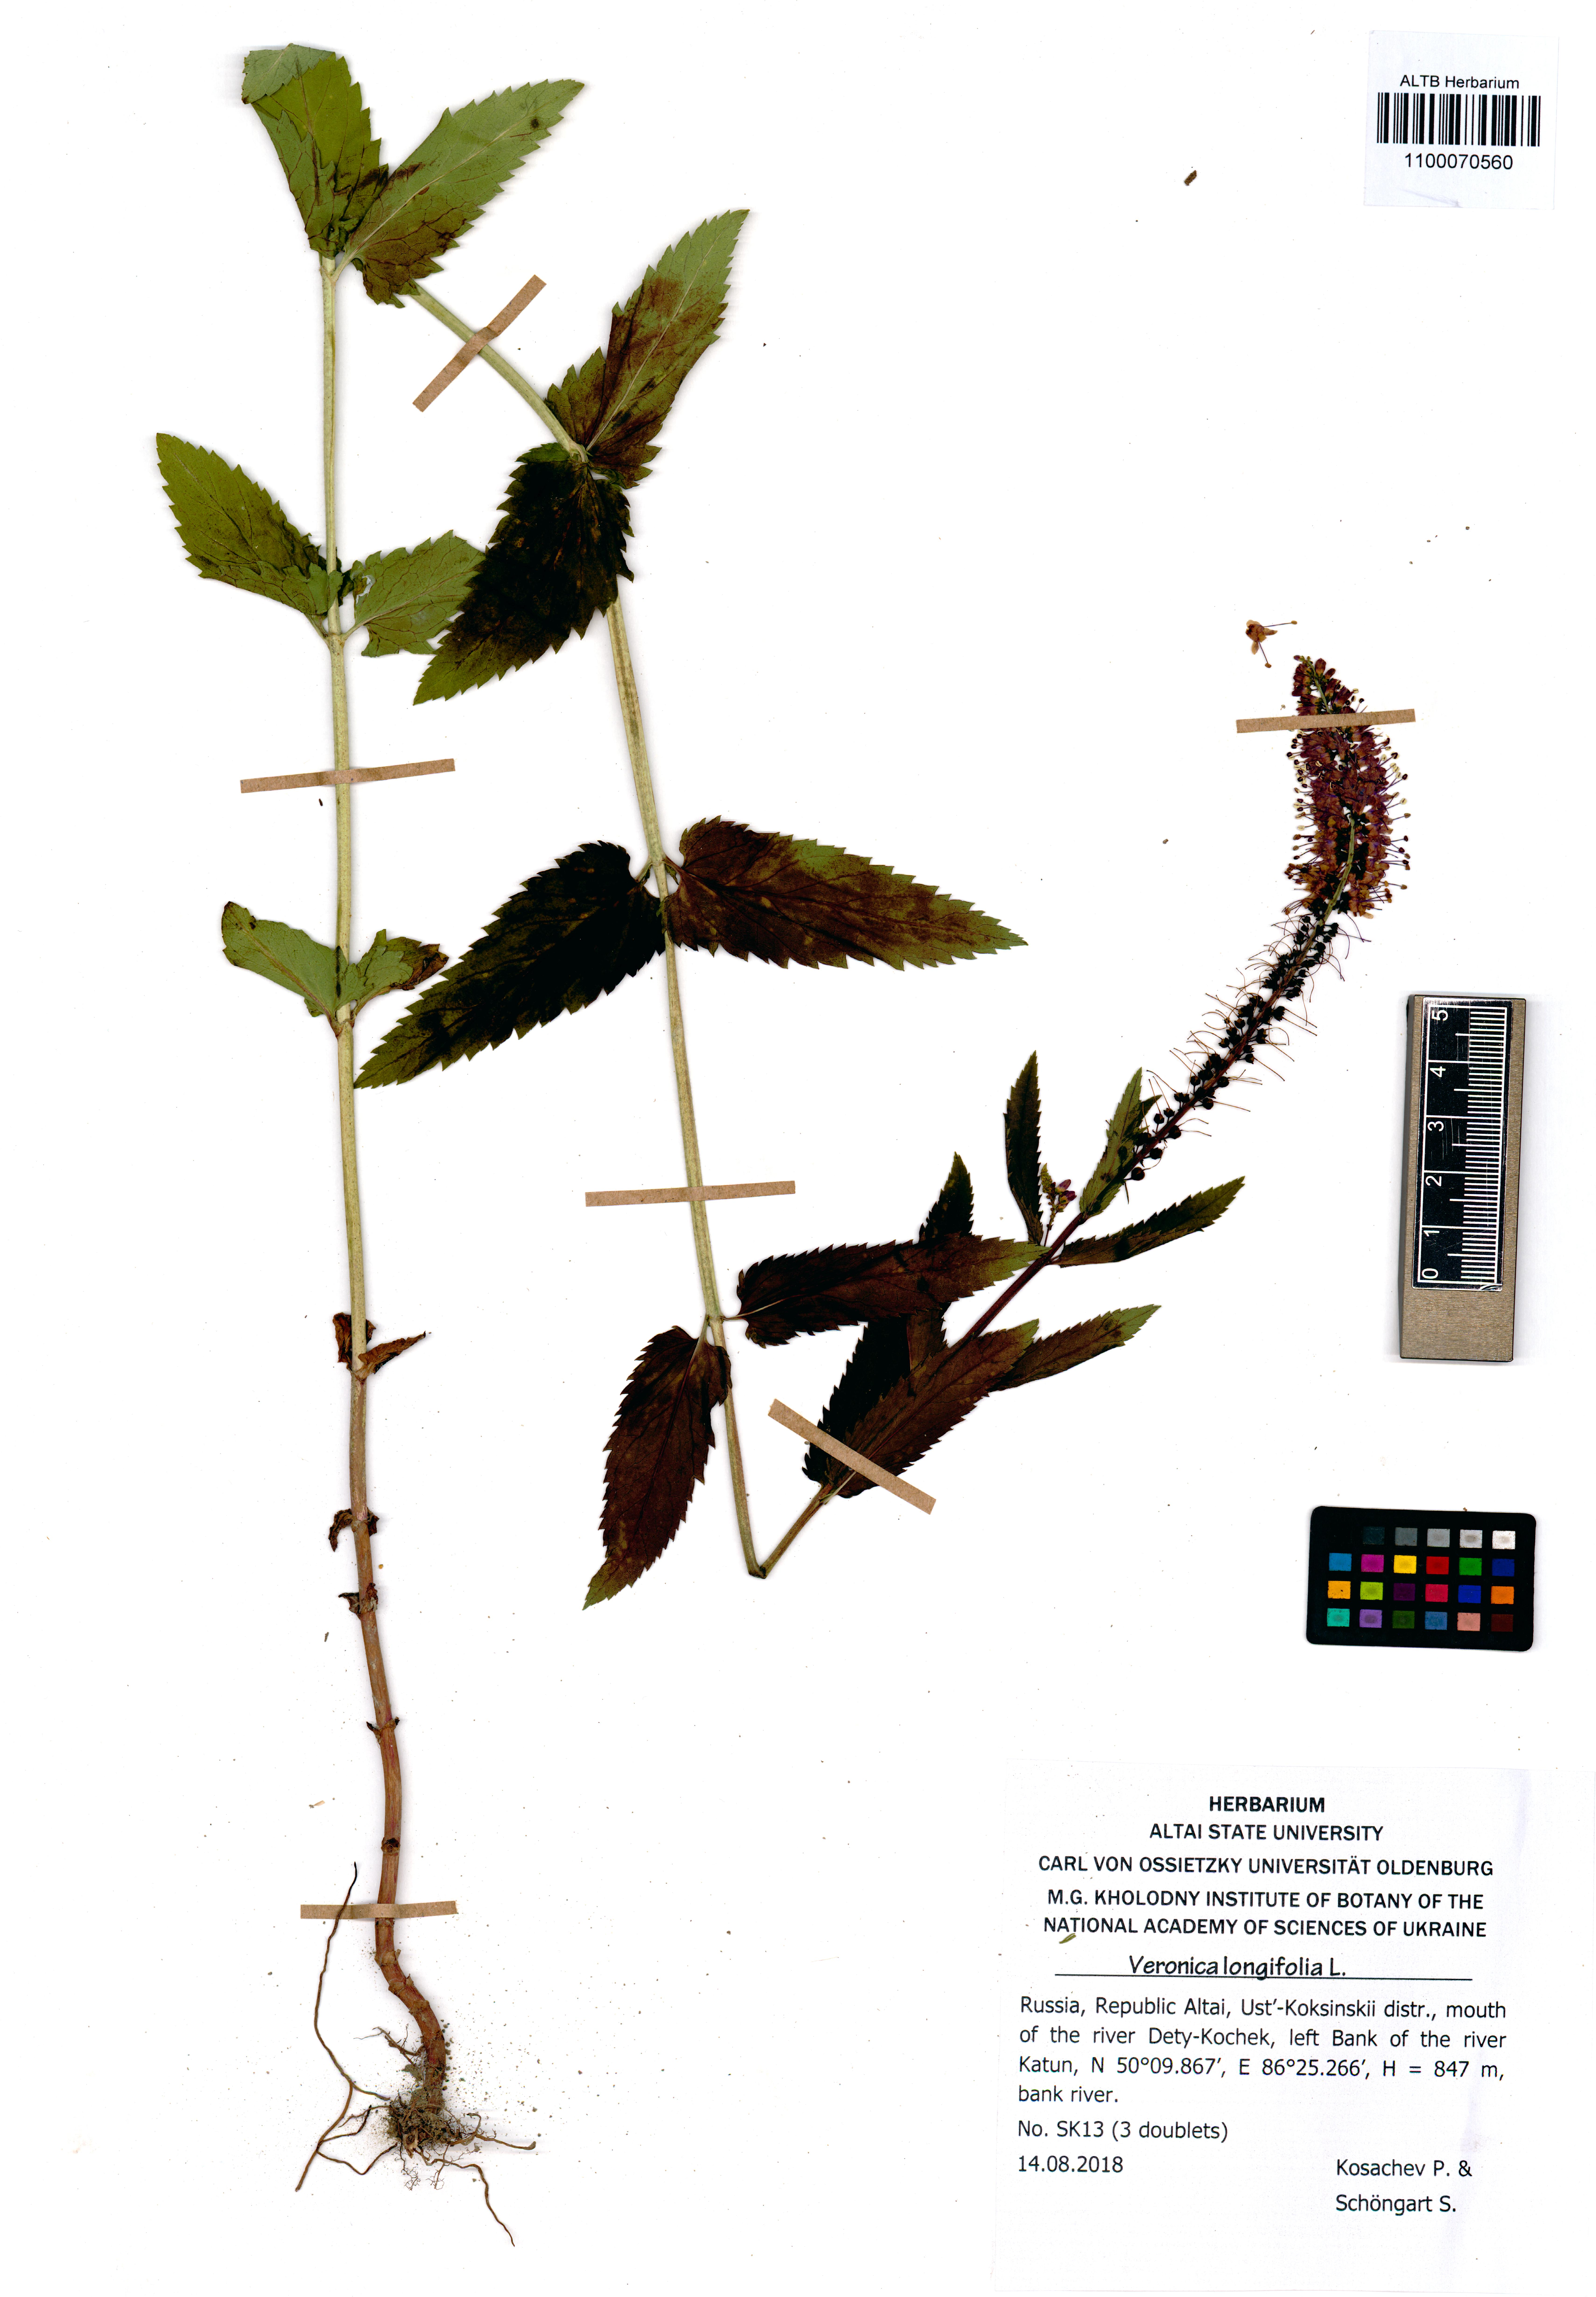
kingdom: Plantae
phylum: Tracheophyta
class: Magnoliopsida
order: Lamiales
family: Plantaginaceae
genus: Veronica
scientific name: Veronica longifolia
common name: Garden speedwell
